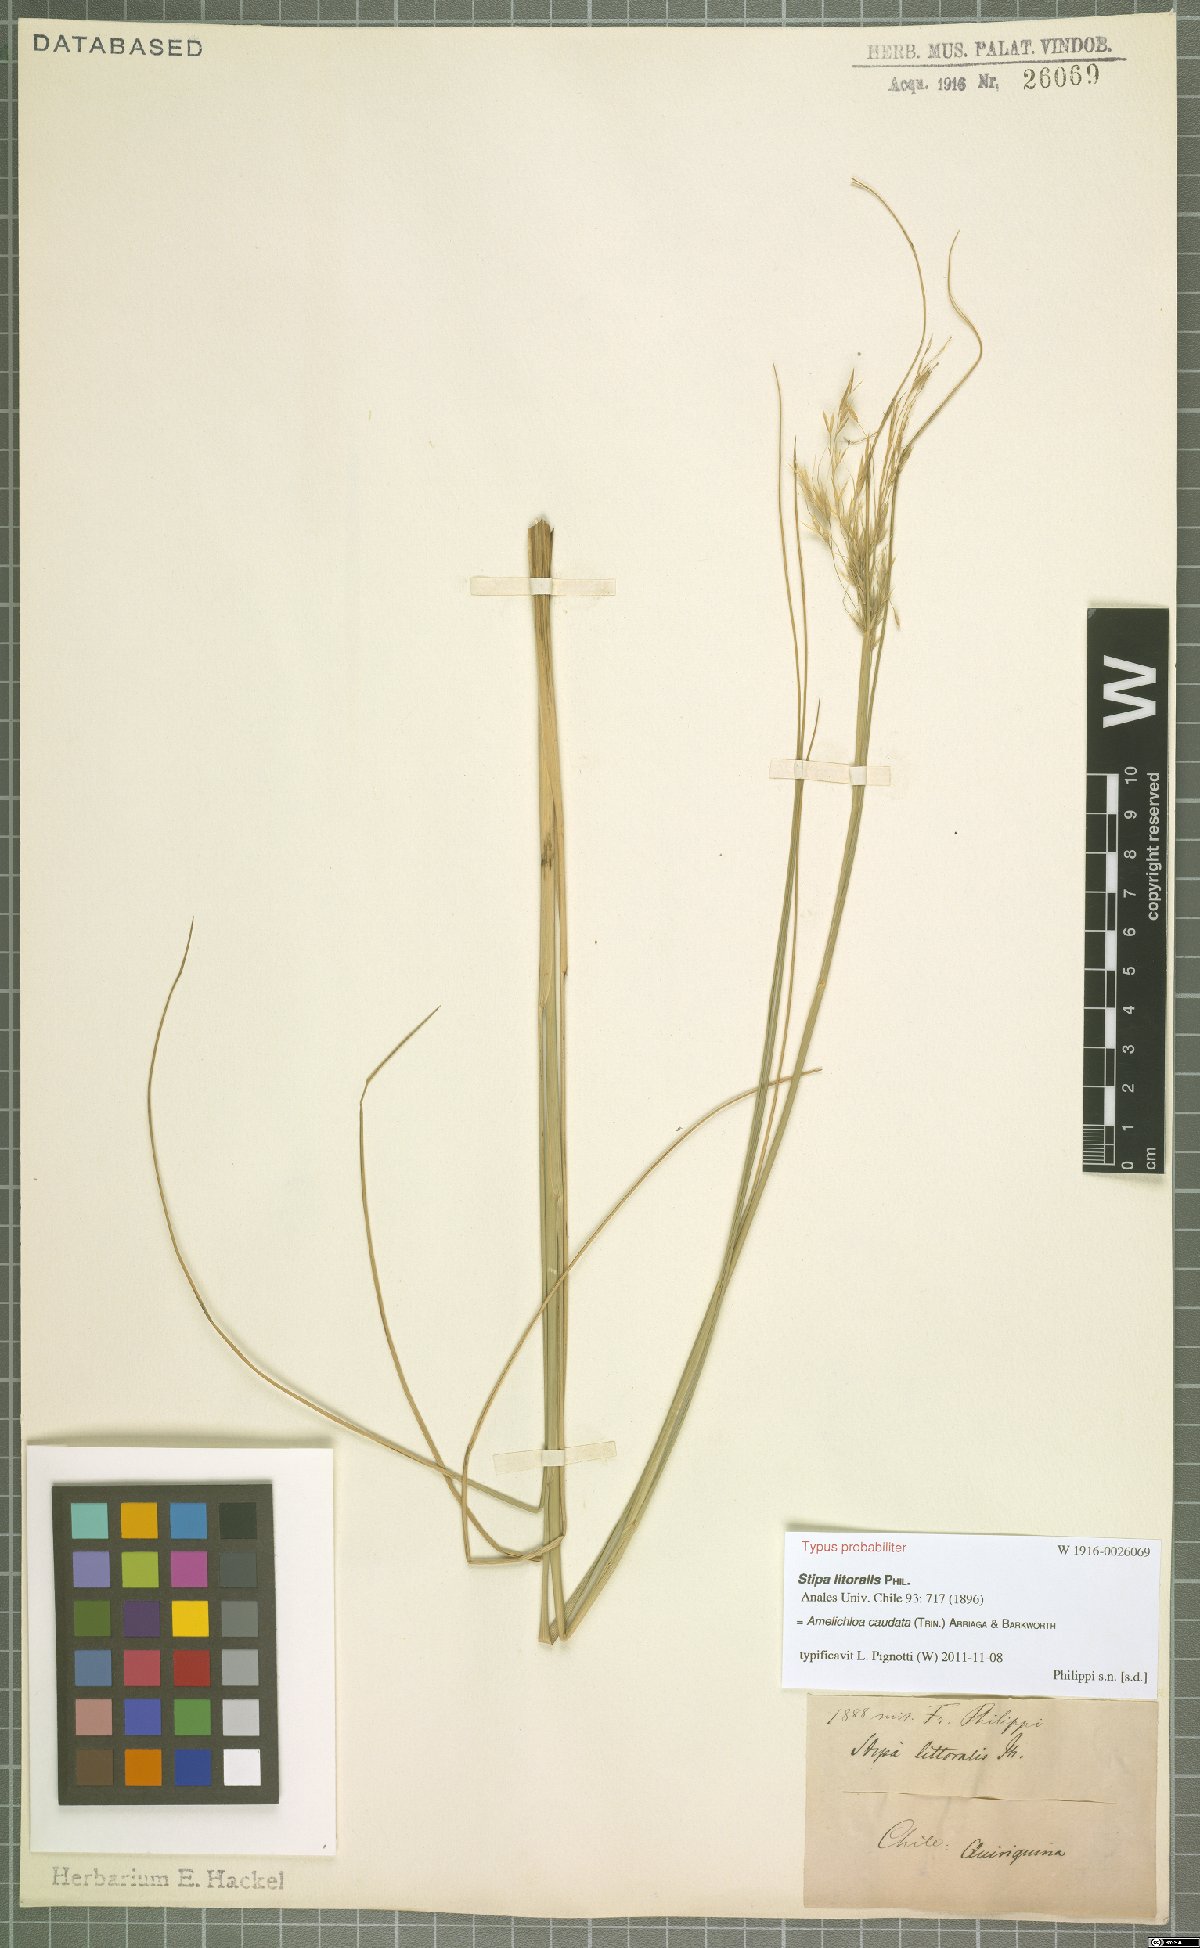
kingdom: Plantae
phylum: Tracheophyta
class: Liliopsida
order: Poales
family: Poaceae
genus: Amelichloa
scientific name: Amelichloa caudata
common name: Chilean ricegrass
